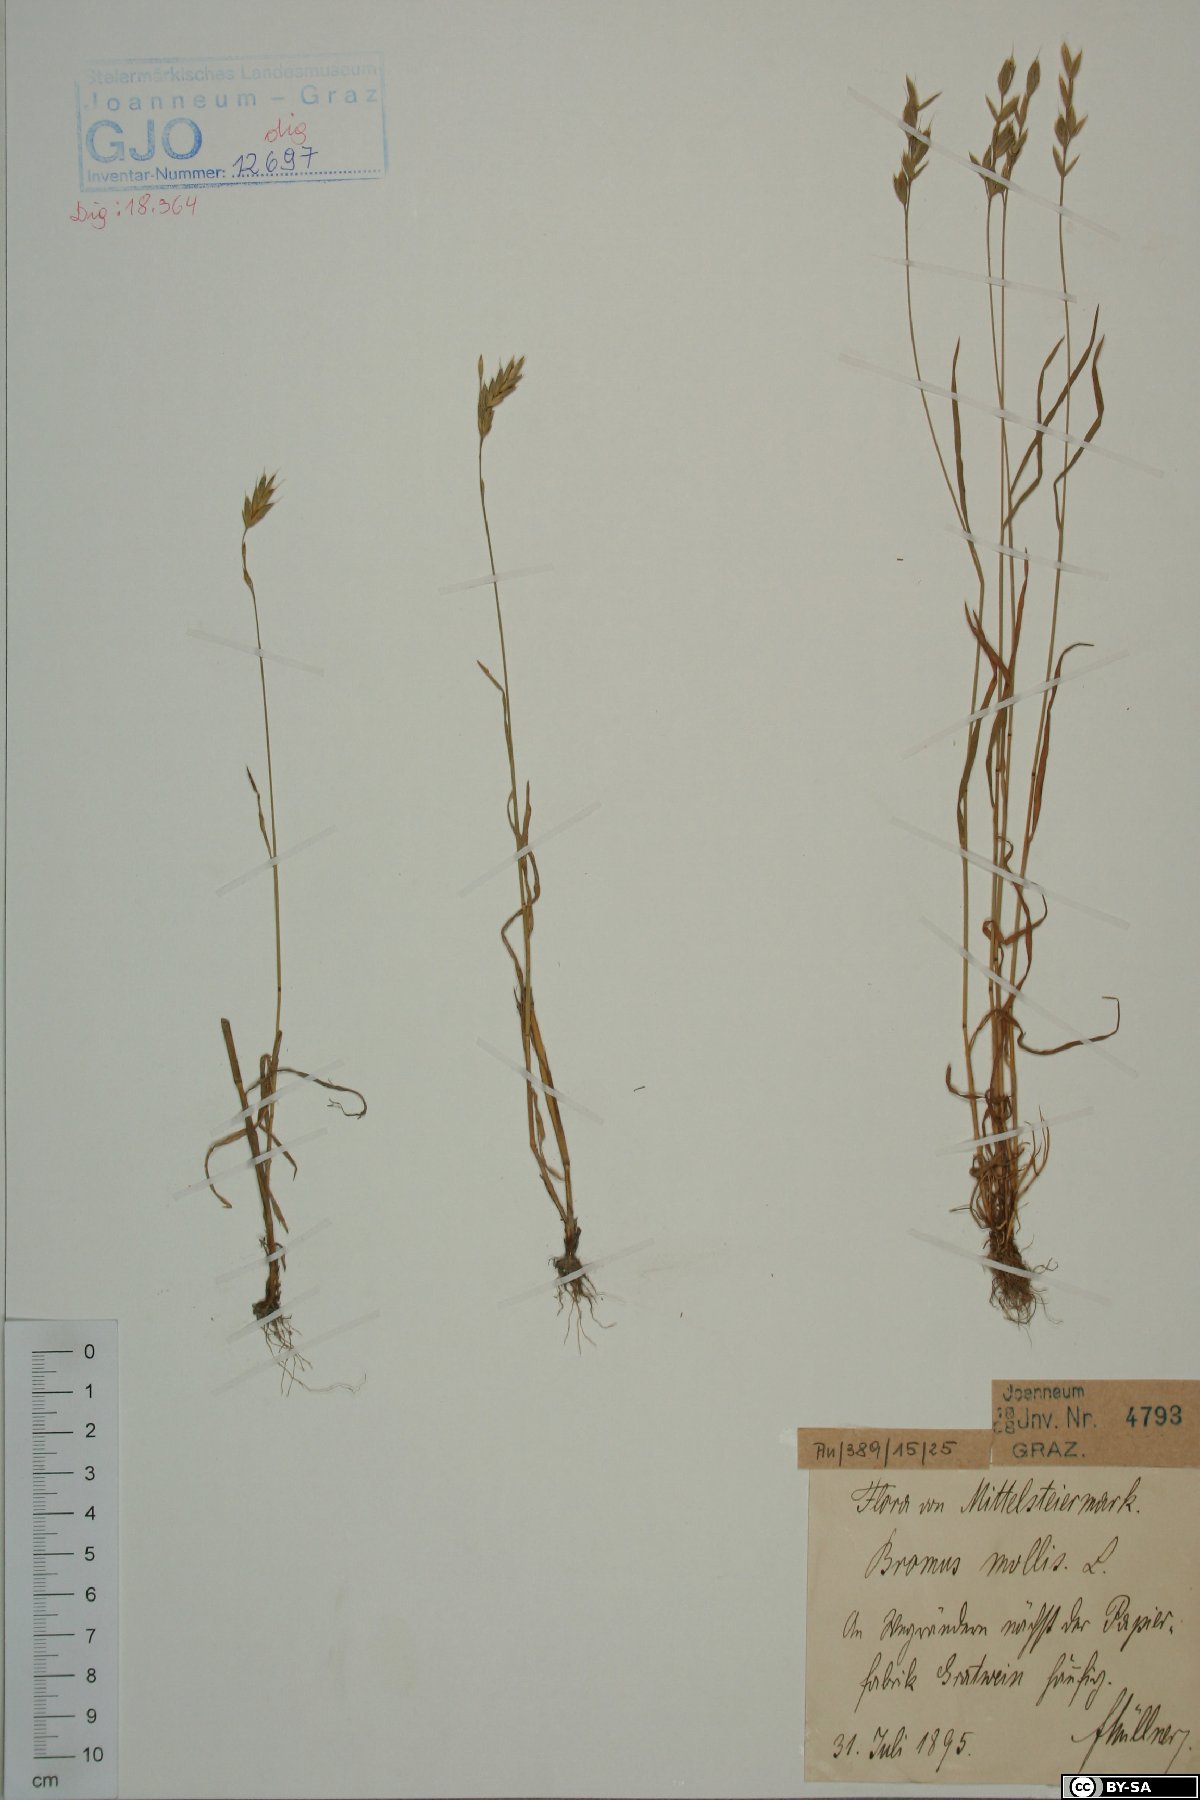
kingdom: Plantae
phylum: Tracheophyta
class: Liliopsida
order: Poales
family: Poaceae
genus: Bromus
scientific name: Bromus hordeaceus
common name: Soft brome
